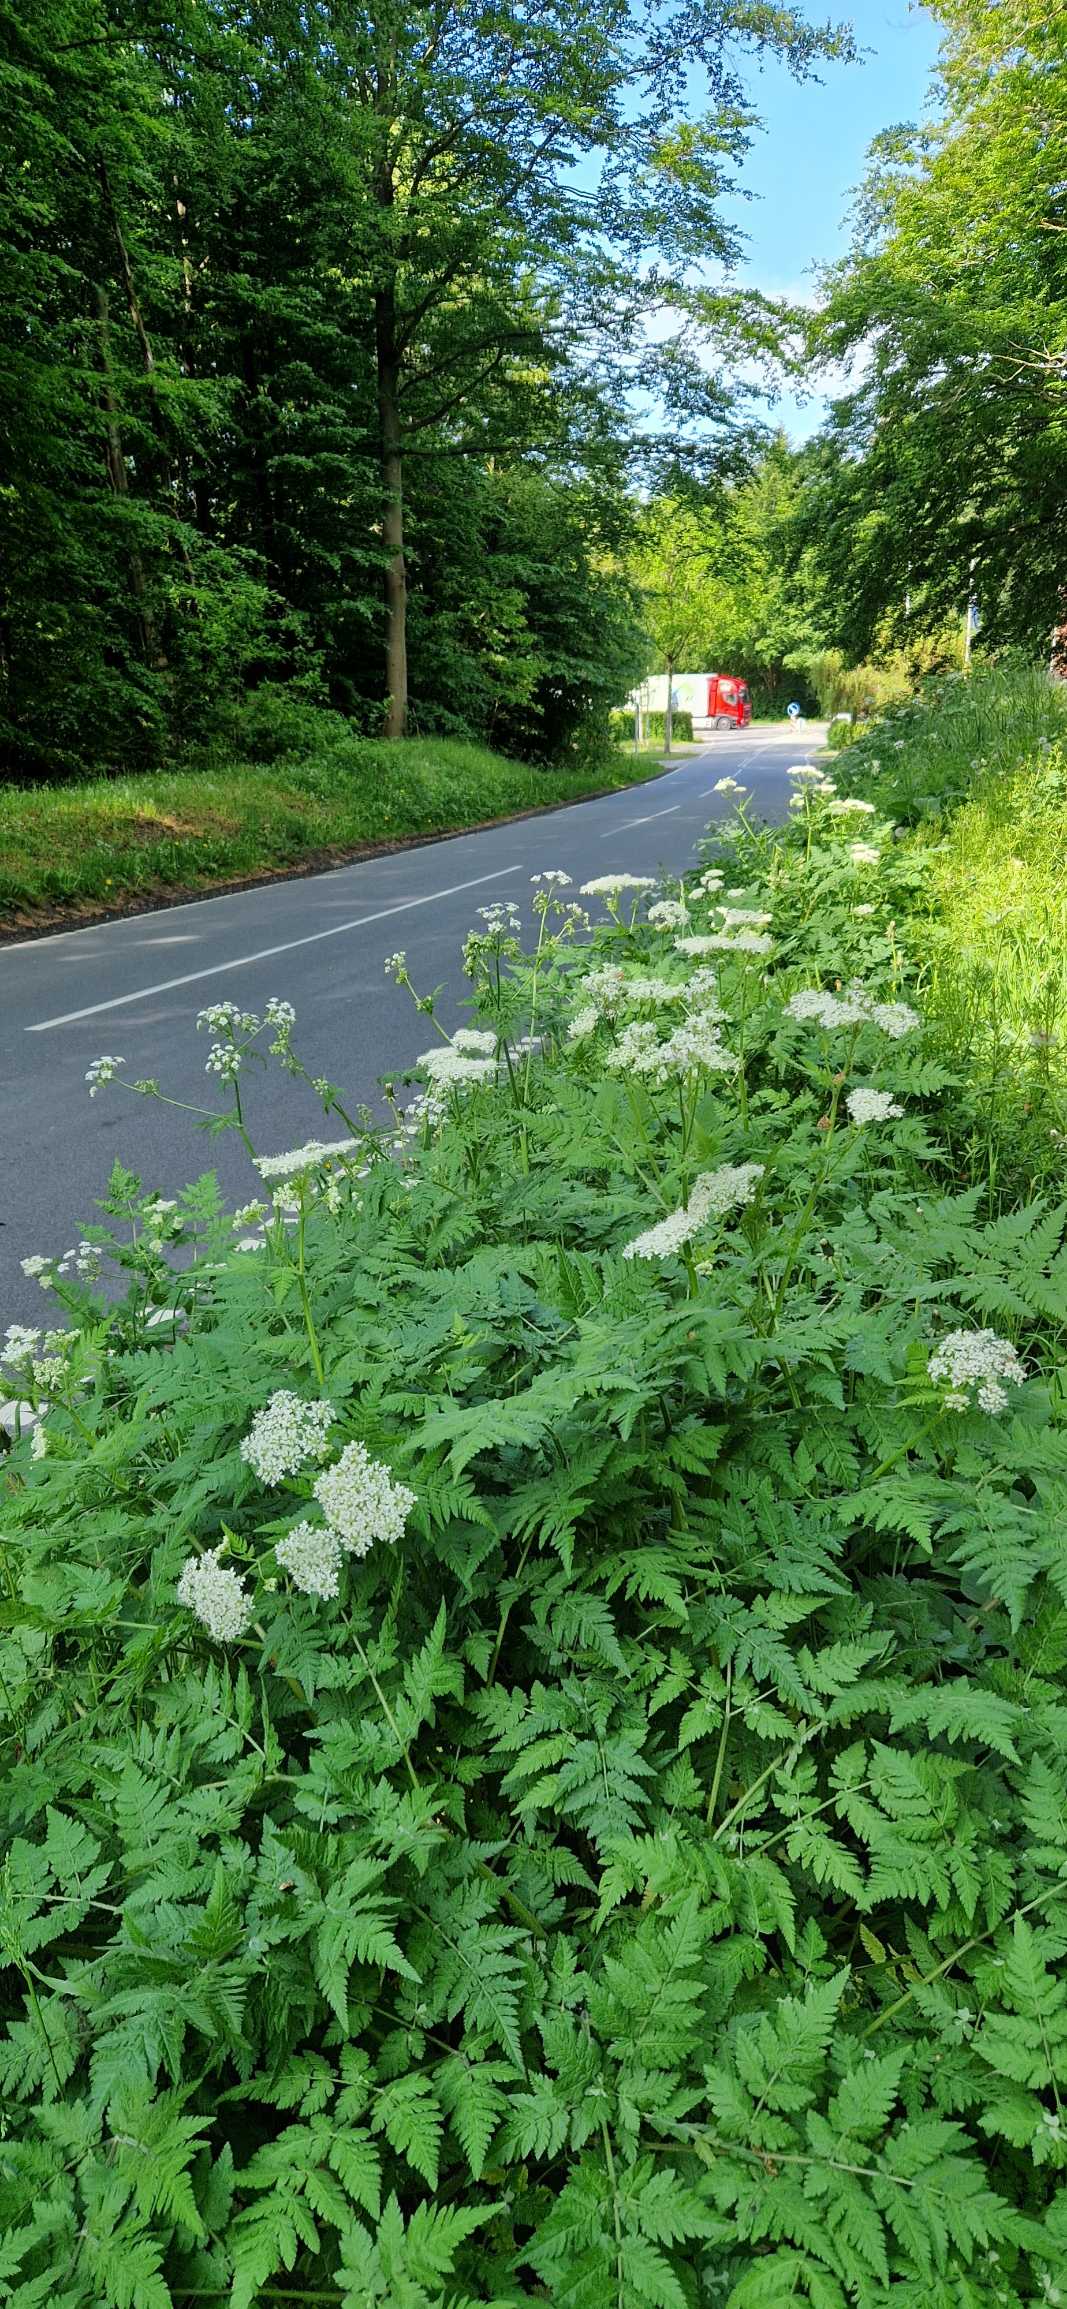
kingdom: Plantae
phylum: Tracheophyta
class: Magnoliopsida
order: Apiales
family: Apiaceae
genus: Myrrhis
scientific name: Myrrhis odorata
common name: Sødskærm
